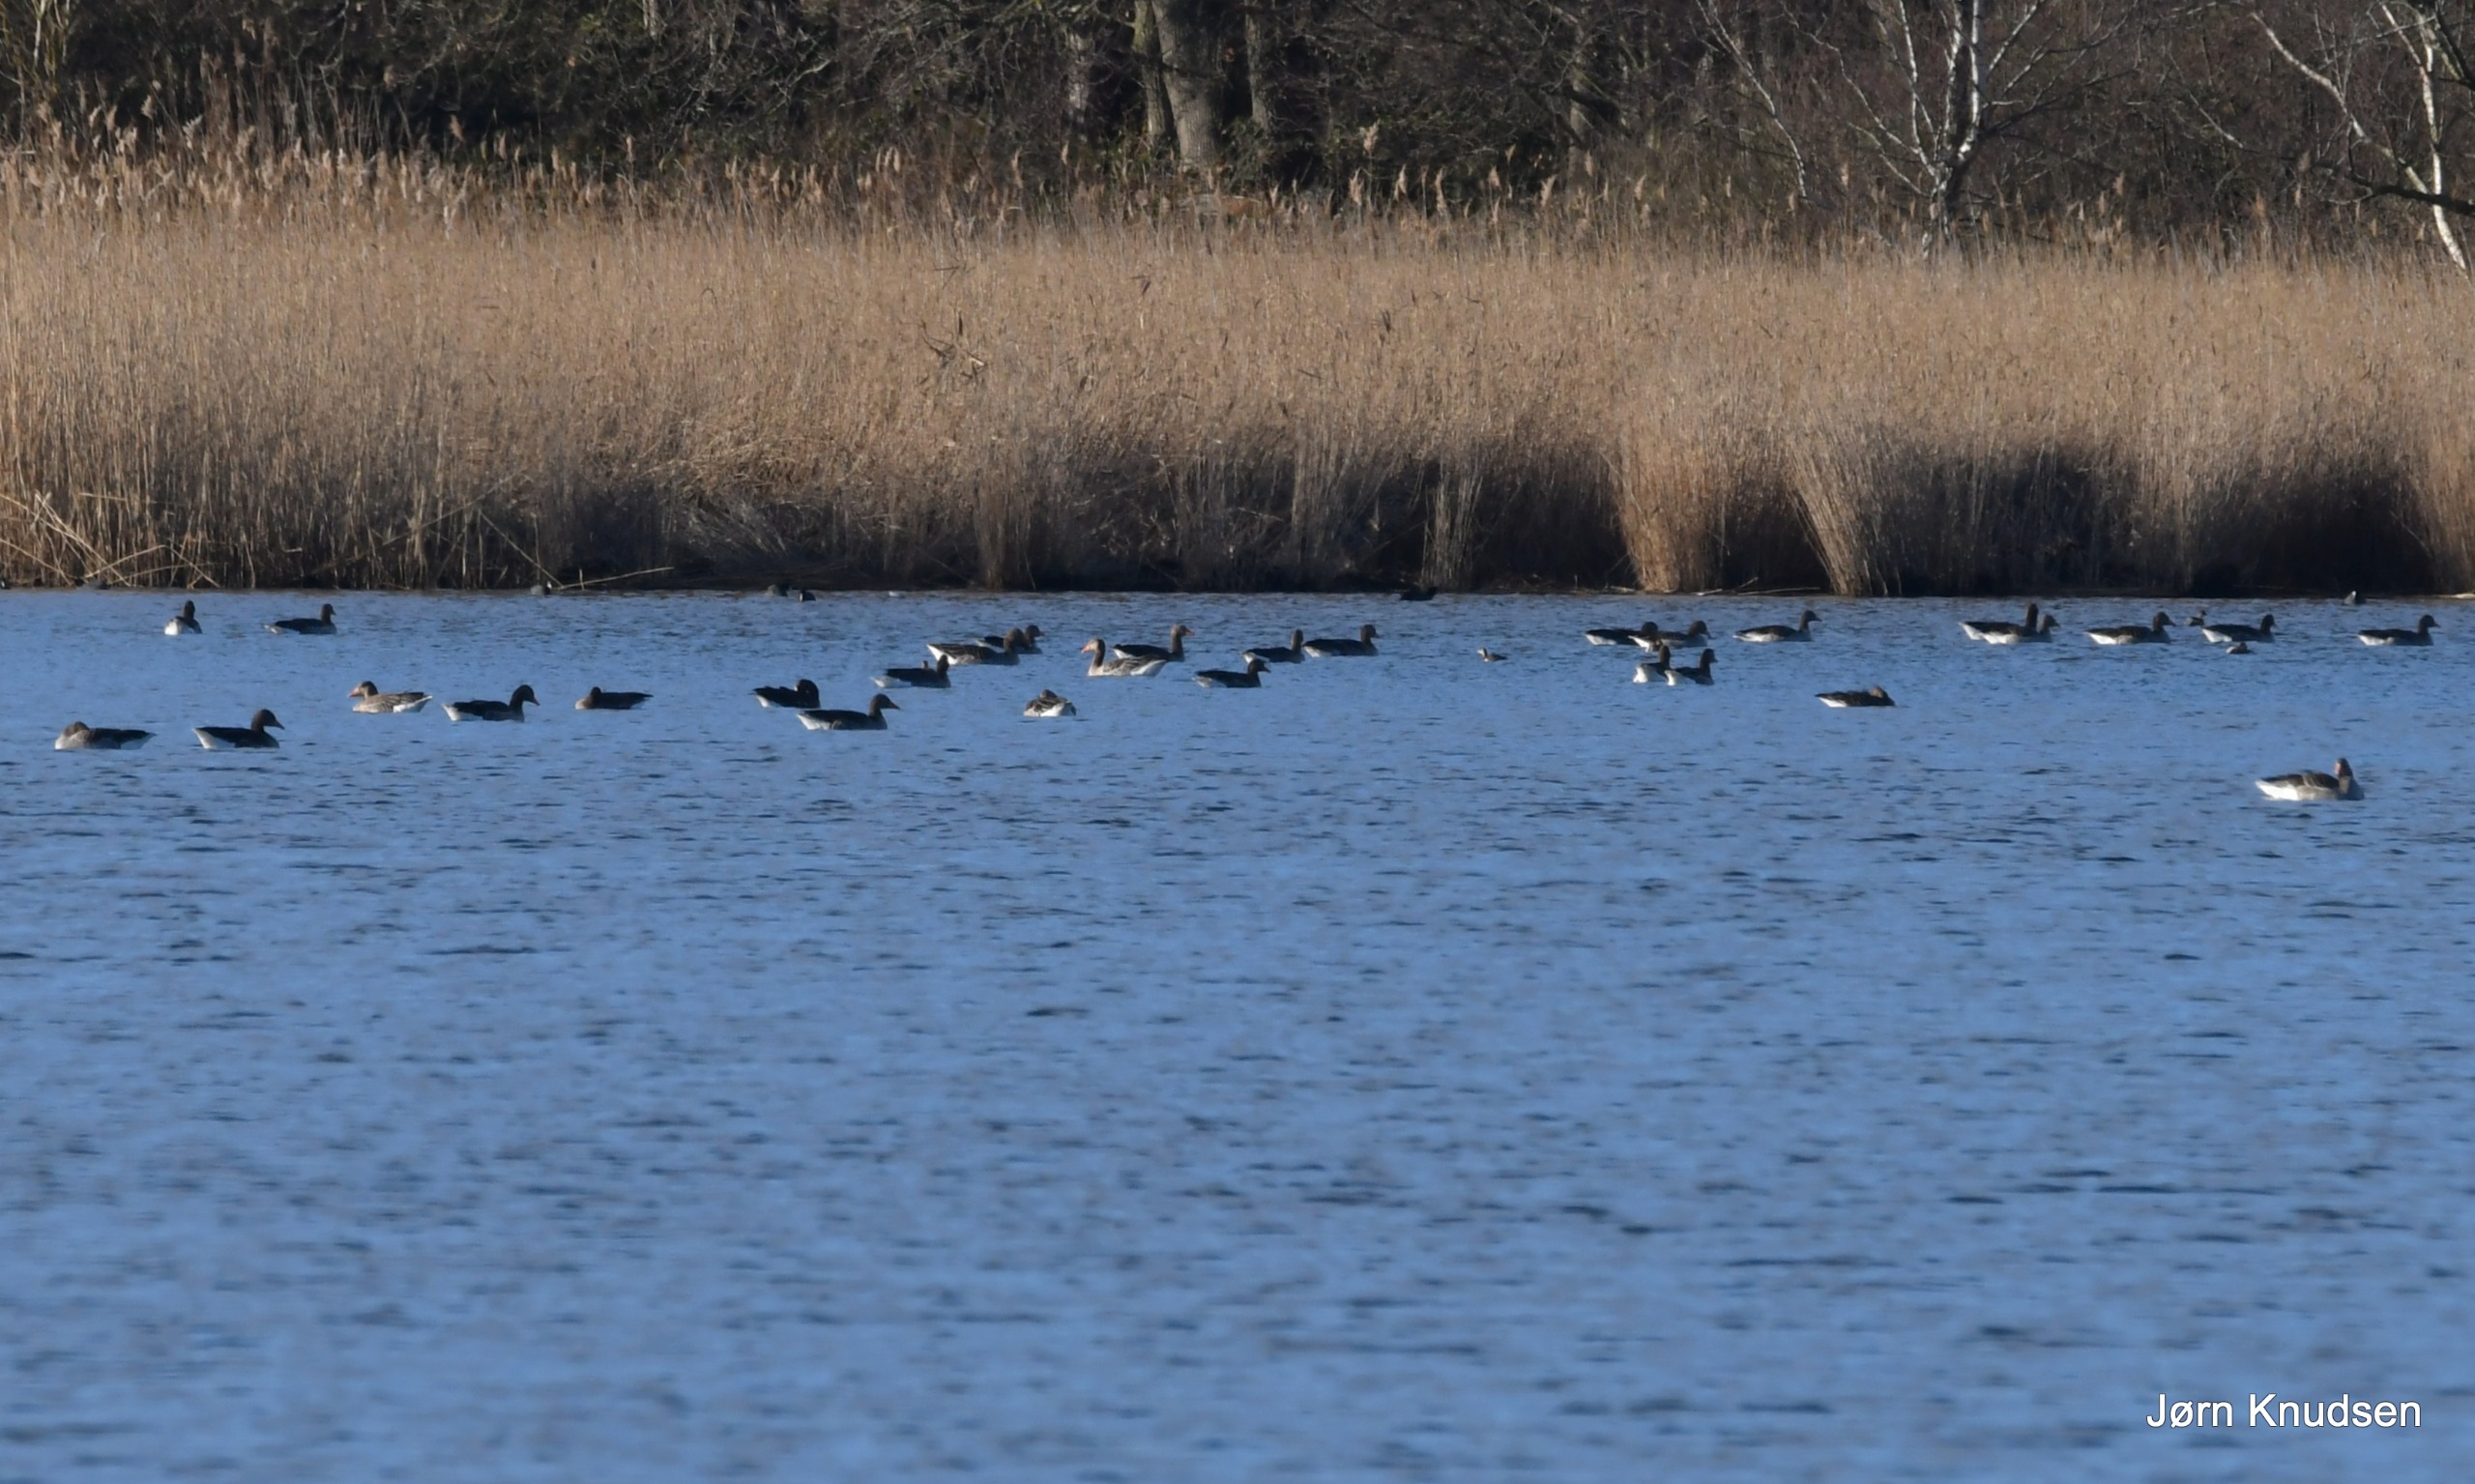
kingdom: Animalia
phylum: Chordata
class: Aves
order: Anseriformes
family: Anatidae
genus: Anser
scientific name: Anser anser
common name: Grågås
